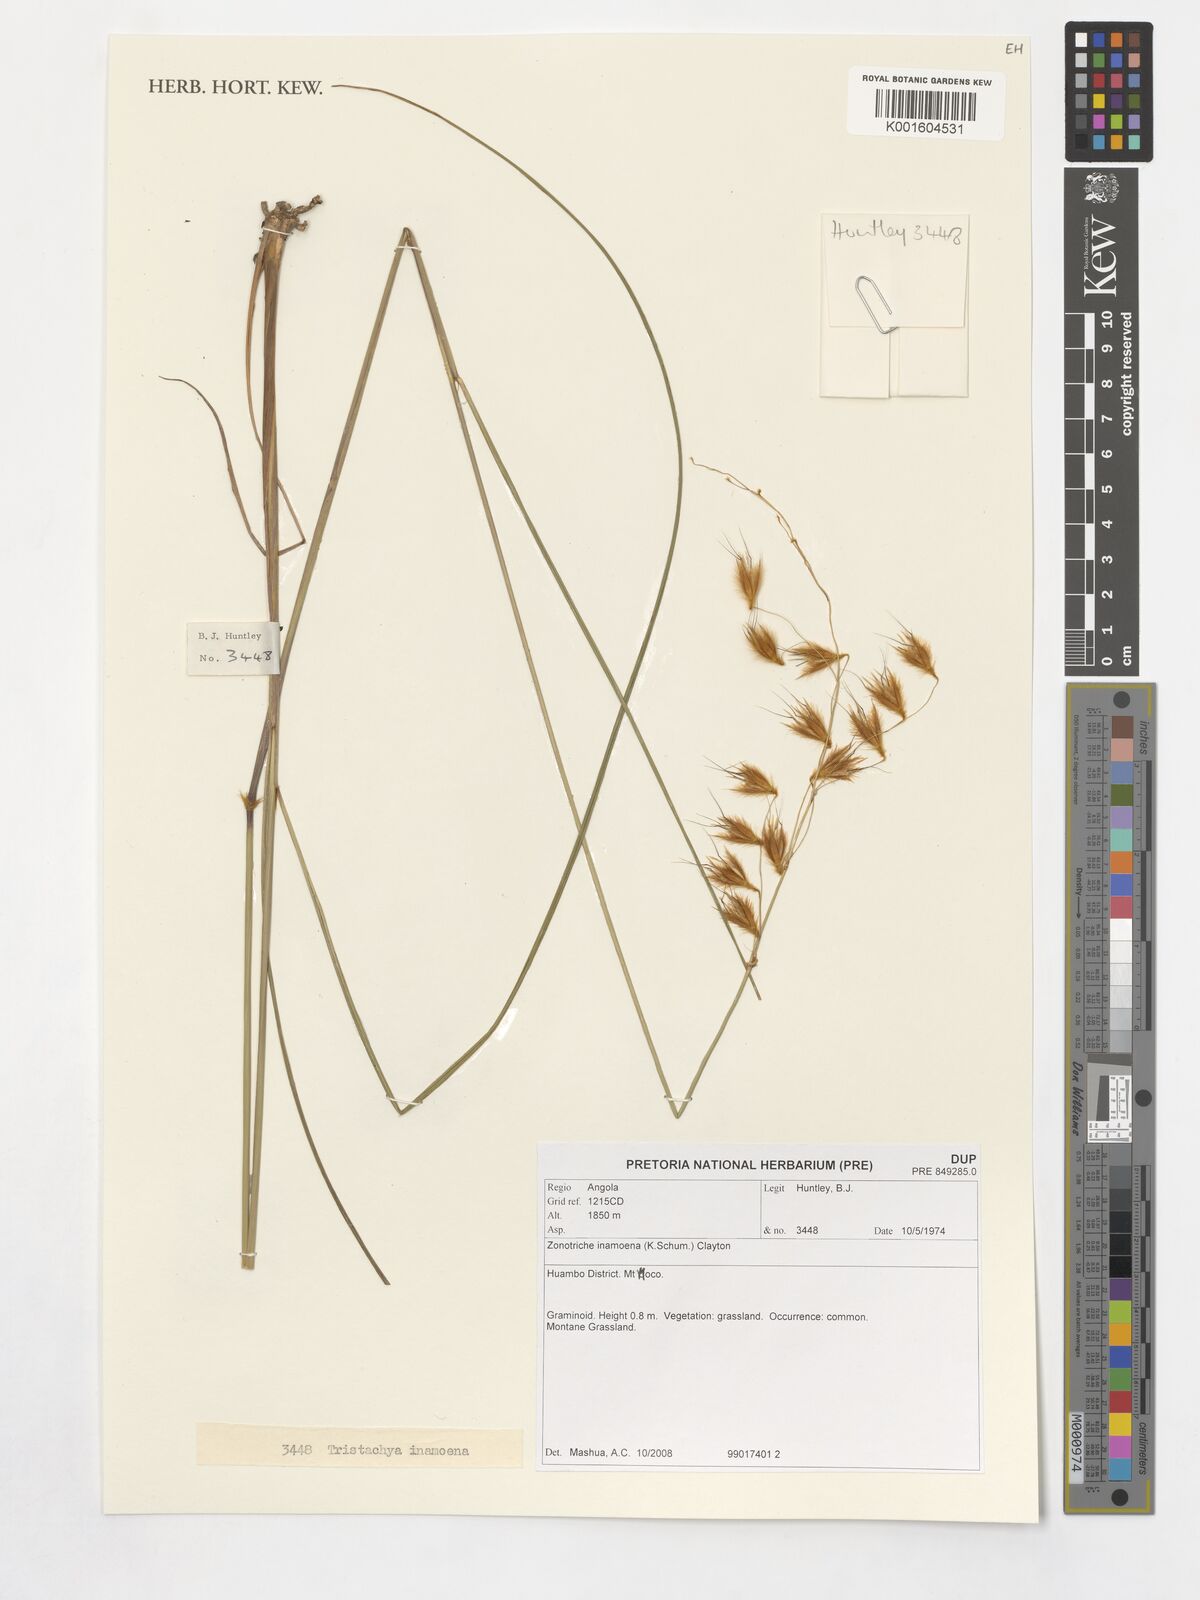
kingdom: Plantae
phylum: Tracheophyta
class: Liliopsida
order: Poales
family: Poaceae
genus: Zonotriche
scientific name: Zonotriche inamoena
